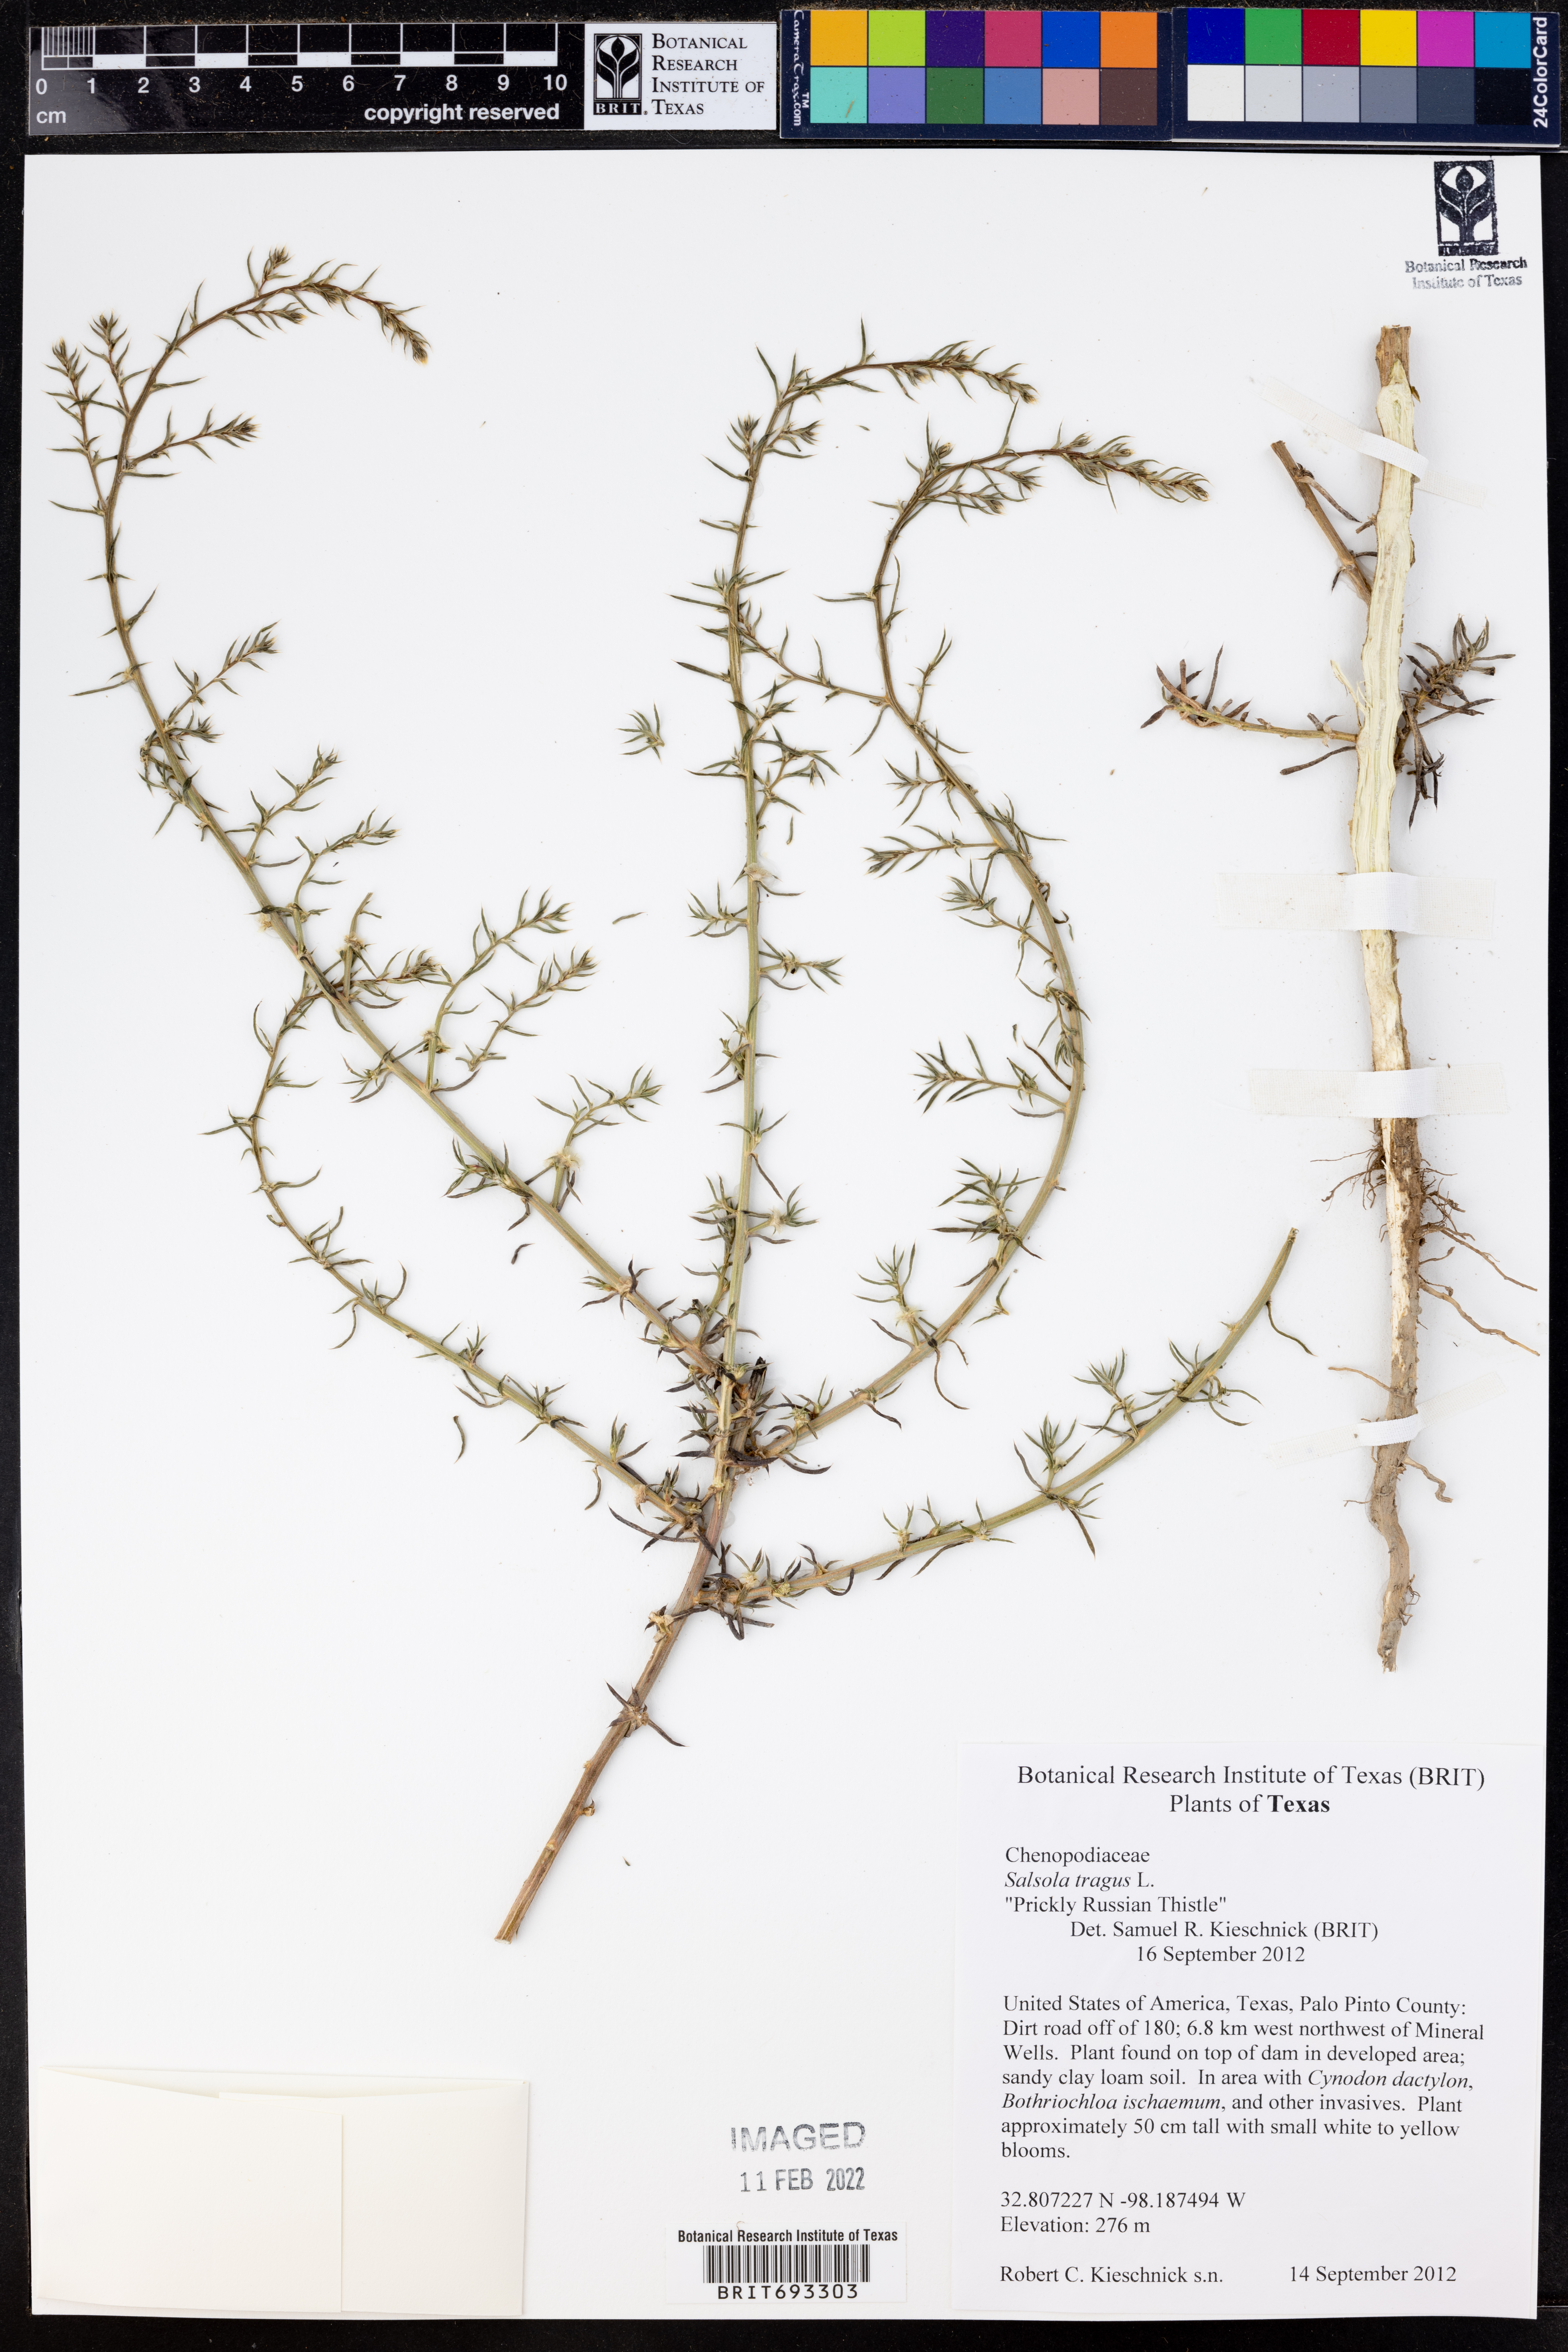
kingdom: Plantae
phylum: Tracheophyta
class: Magnoliopsida
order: Caryophyllales
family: Amaranthaceae
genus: Salsola
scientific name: Salsola tragus
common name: Prickly russian thistle
